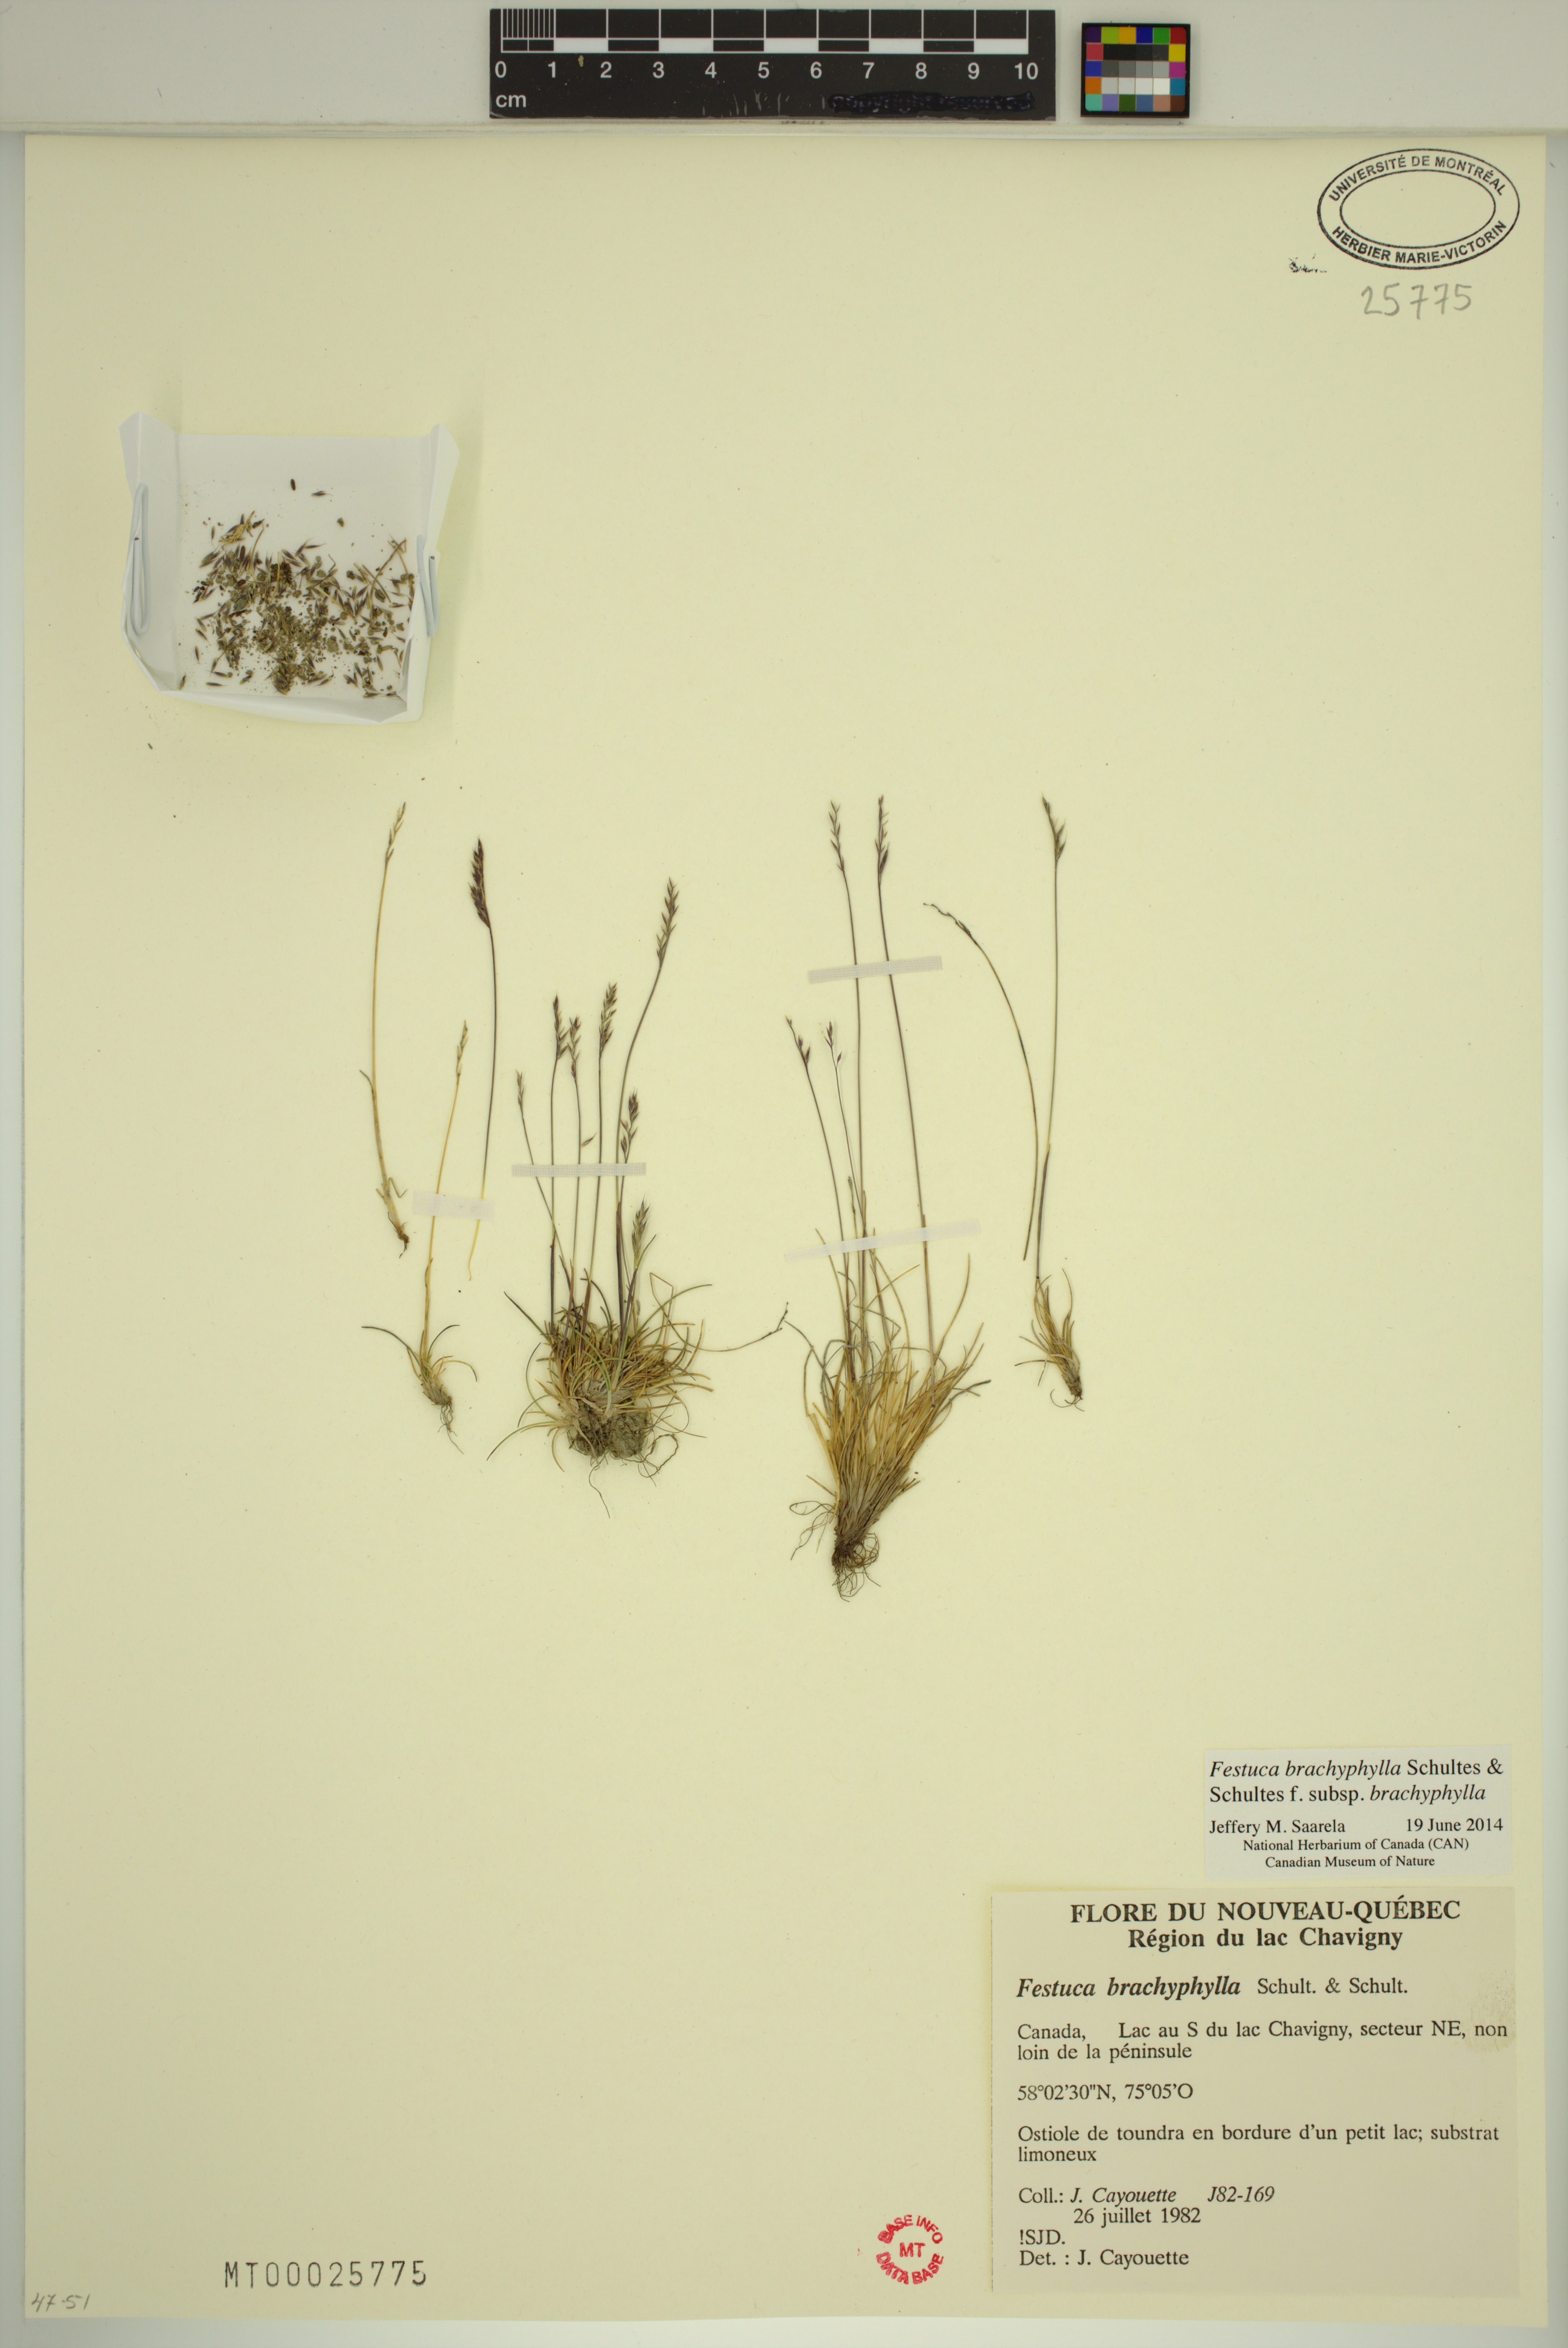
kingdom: Plantae
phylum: Tracheophyta
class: Liliopsida
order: Poales
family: Poaceae
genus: Festuca
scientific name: Festuca brachyphylla
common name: Alpine fescue
